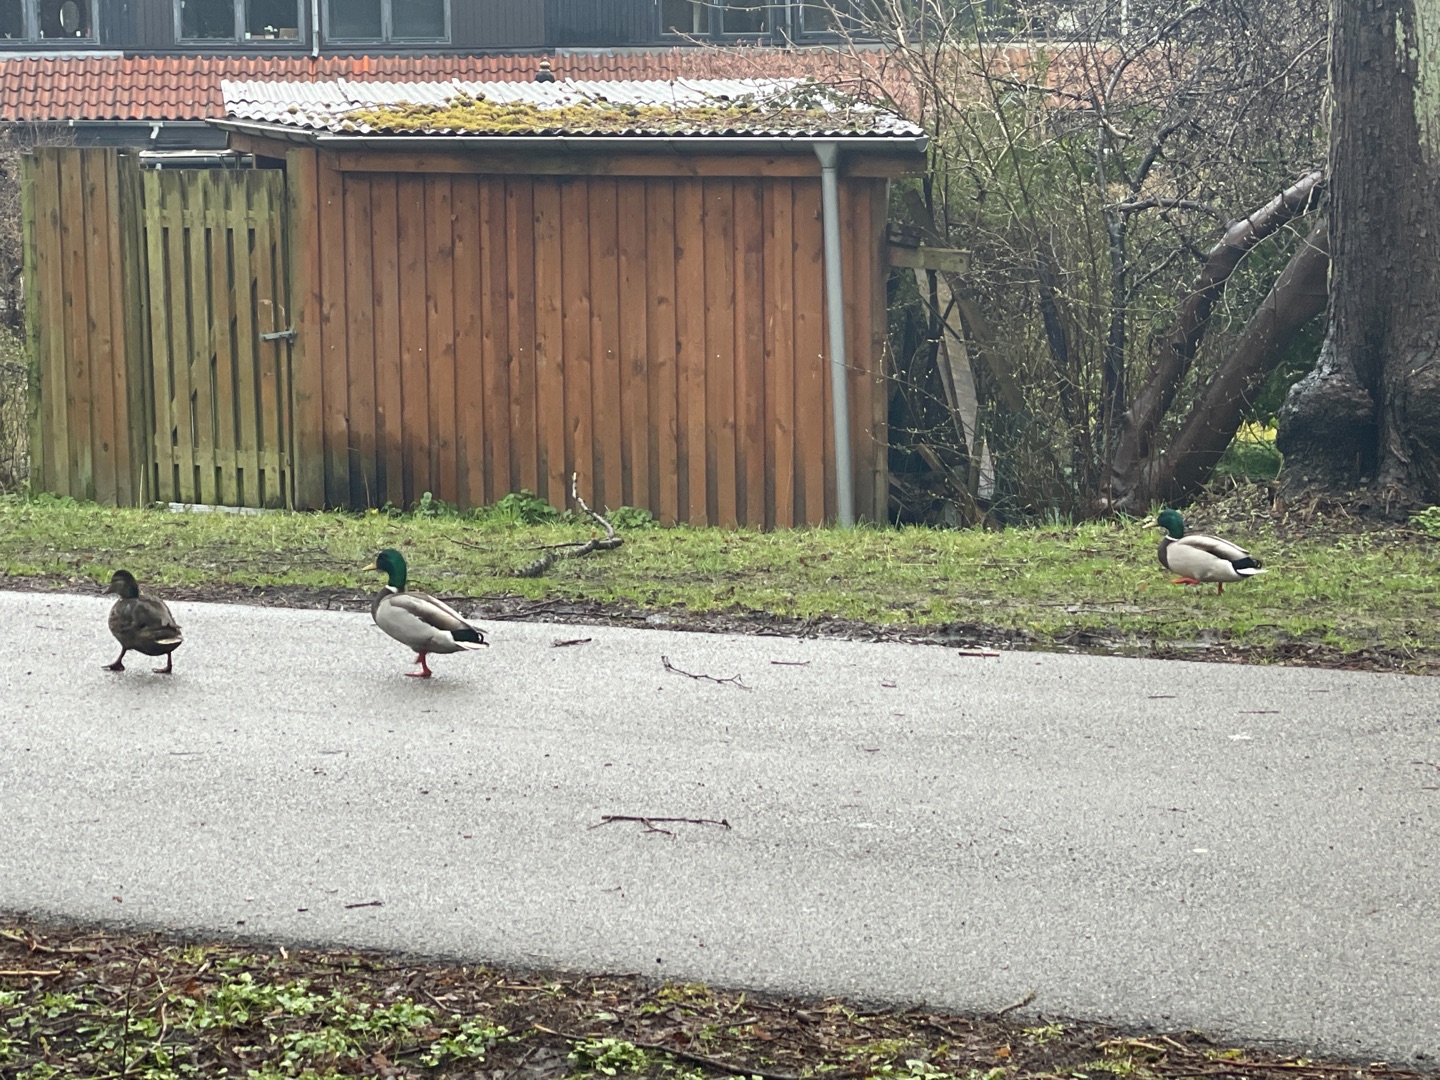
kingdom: Animalia
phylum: Chordata
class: Aves
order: Anseriformes
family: Anatidae
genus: Anas
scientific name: Anas platyrhynchos
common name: Gråand
